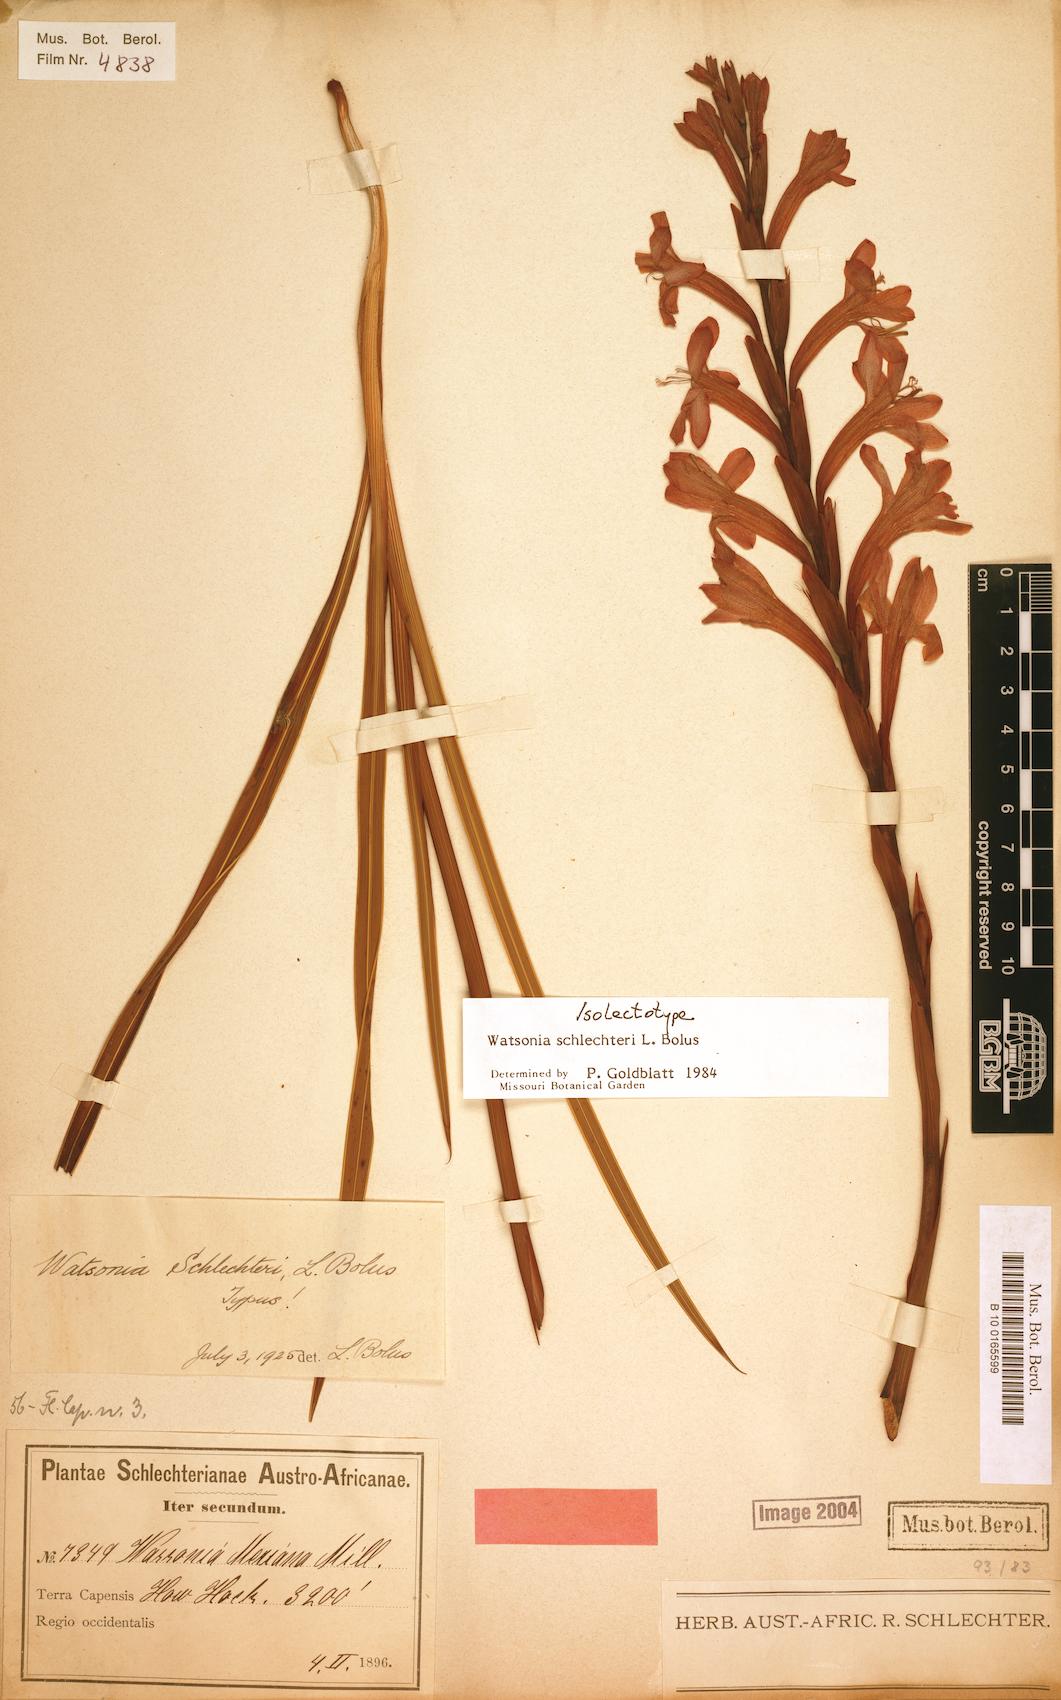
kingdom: Plantae
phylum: Tracheophyta
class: Liliopsida
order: Asparagales
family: Iridaceae
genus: Watsonia
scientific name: Watsonia schlechteri
